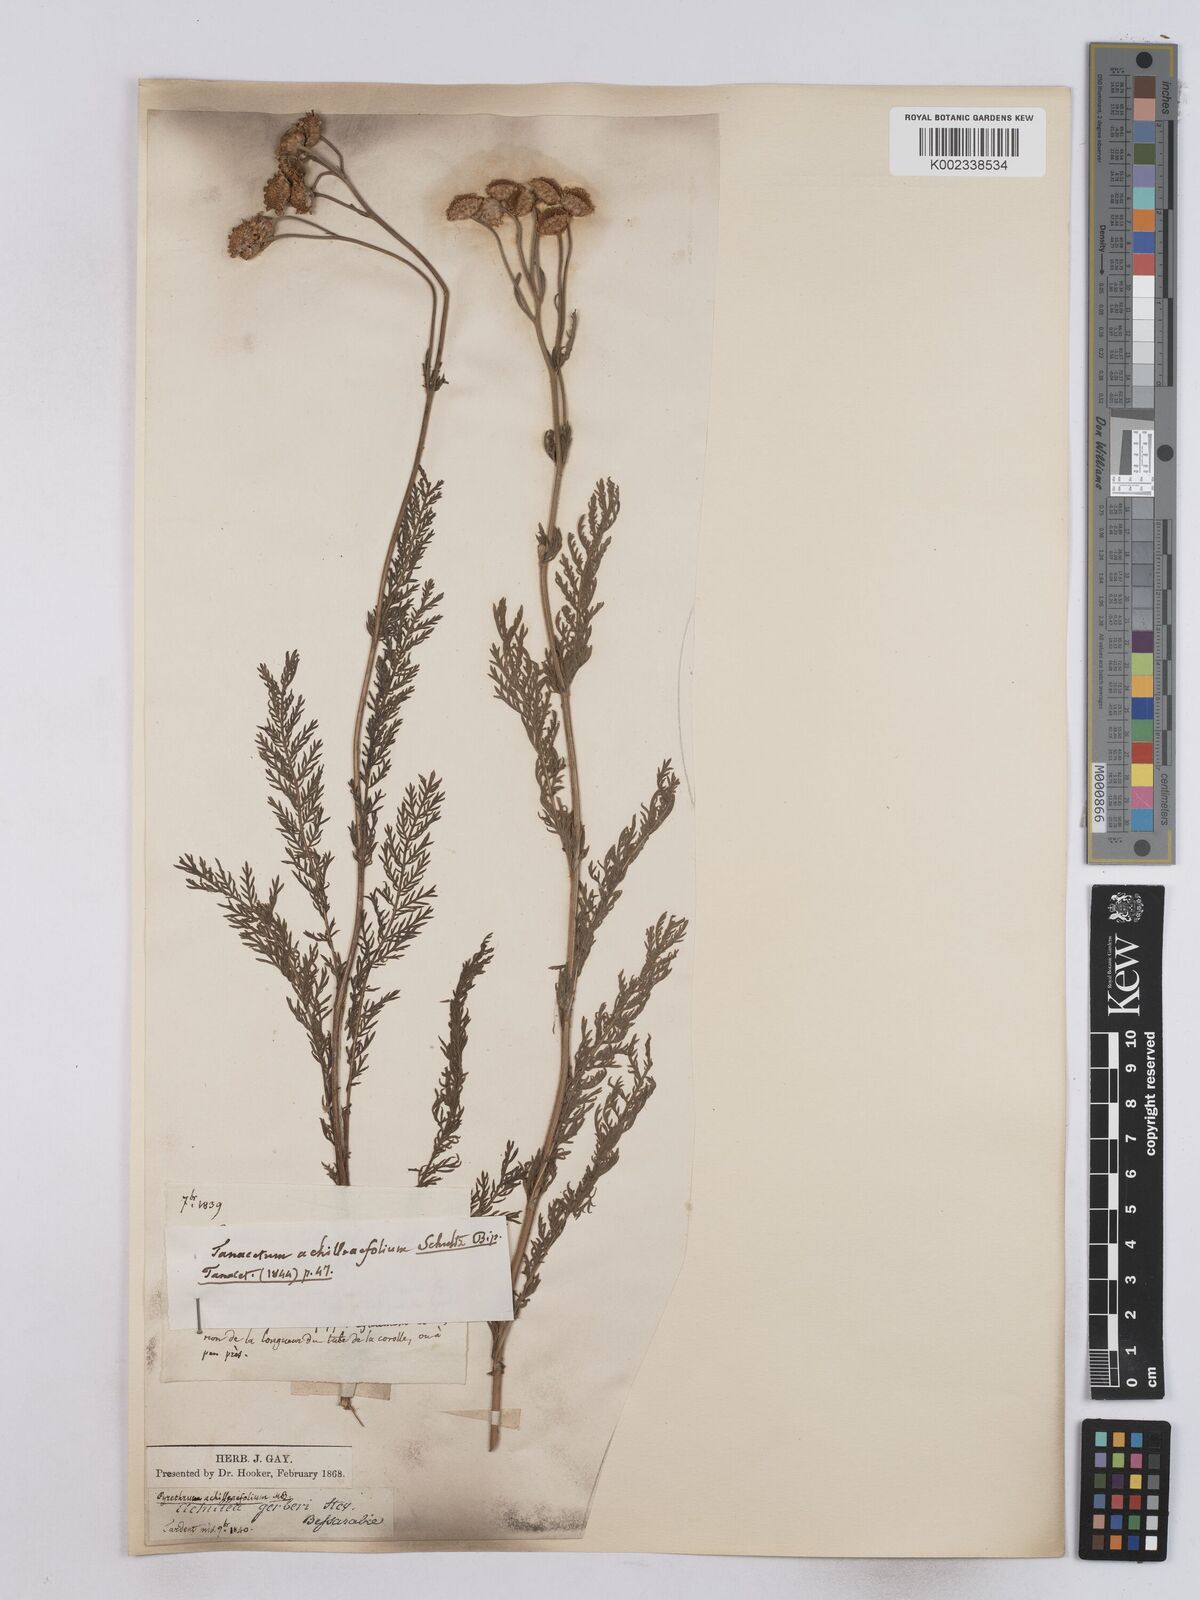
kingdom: Plantae
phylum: Tracheophyta
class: Magnoliopsida
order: Asterales
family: Asteraceae
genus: Tanacetum
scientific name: Tanacetum achilleifolium
